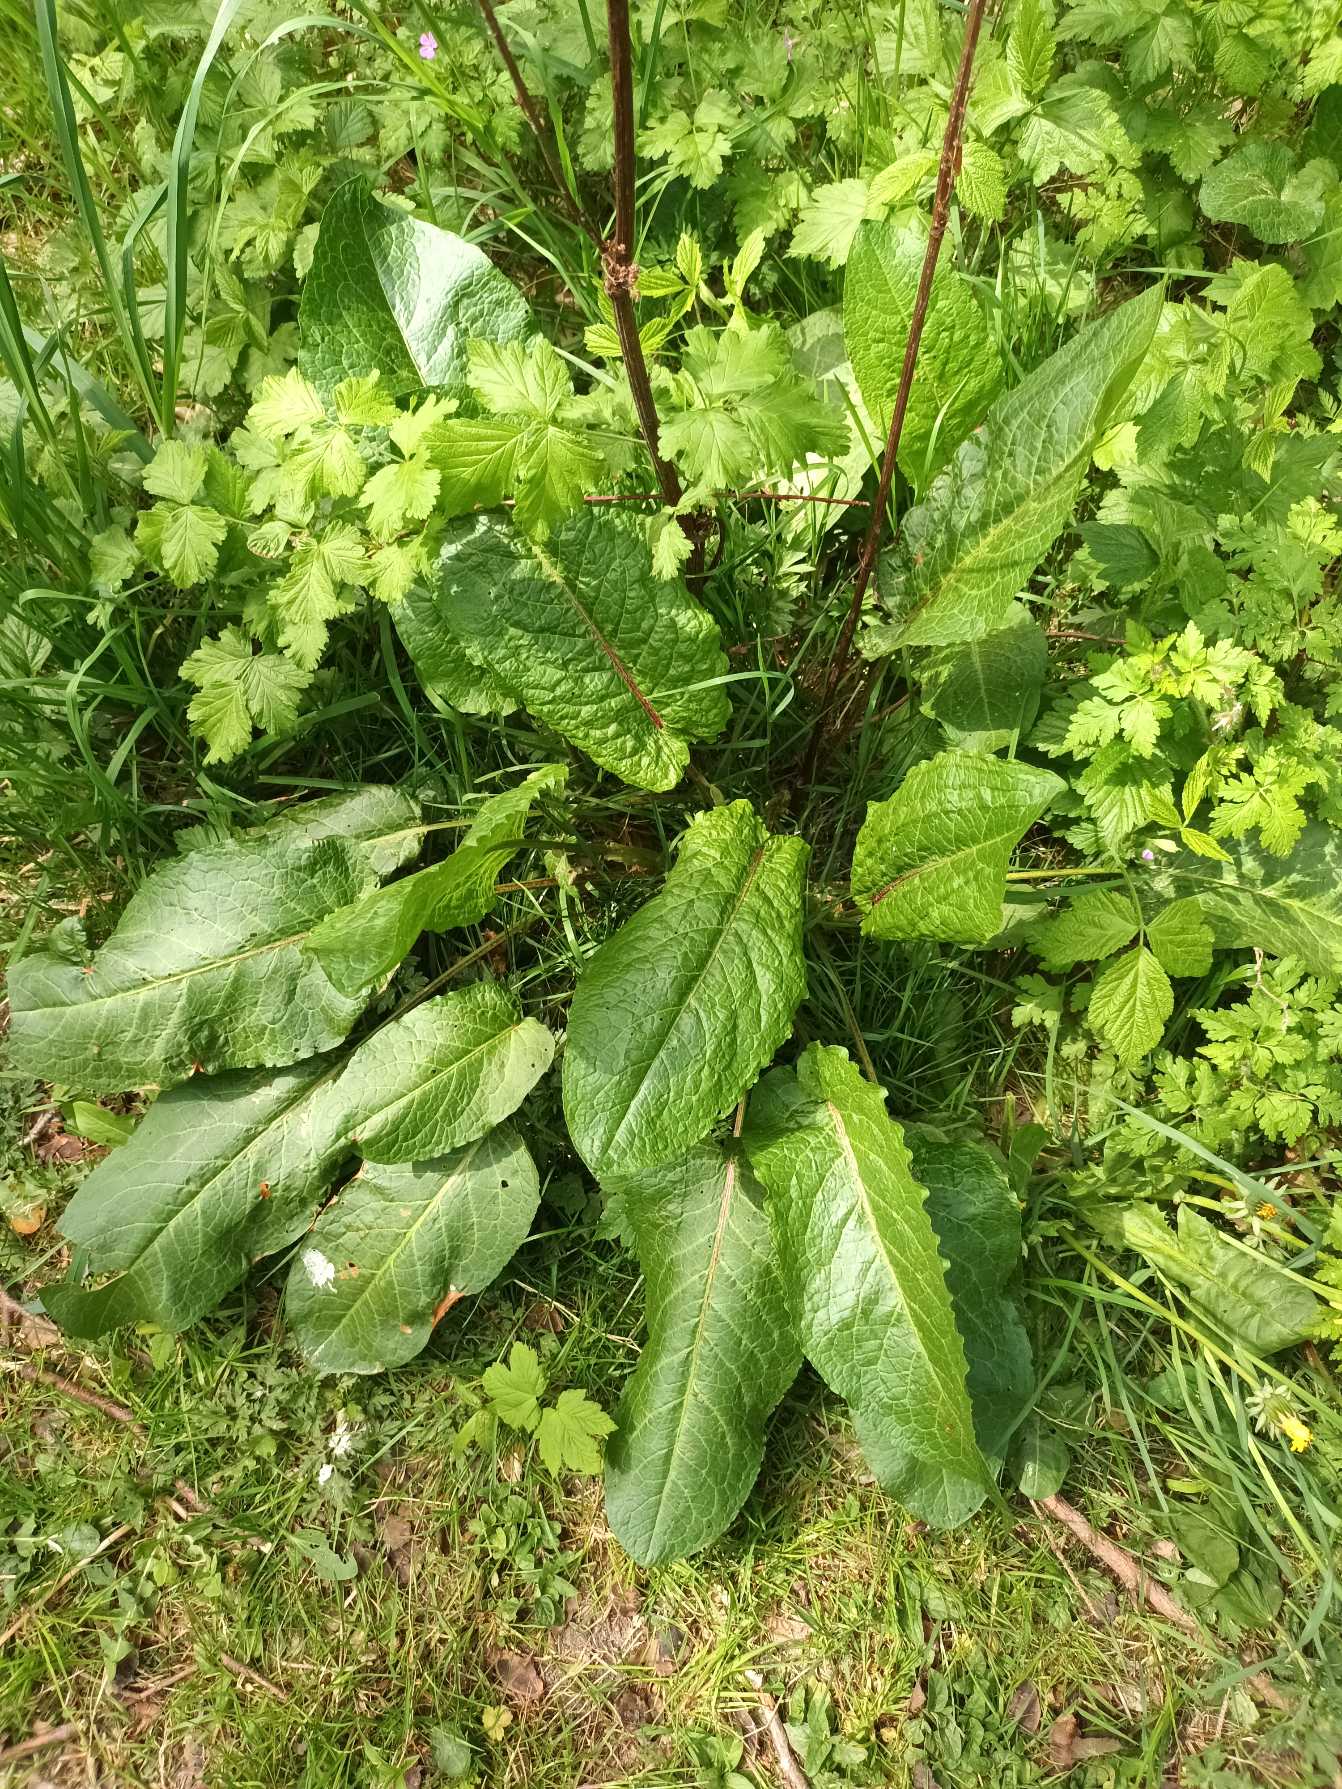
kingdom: Plantae
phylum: Tracheophyta
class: Magnoliopsida
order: Caryophyllales
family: Polygonaceae
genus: Rumex
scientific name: Rumex obtusifolius
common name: Butbladet skræppe
